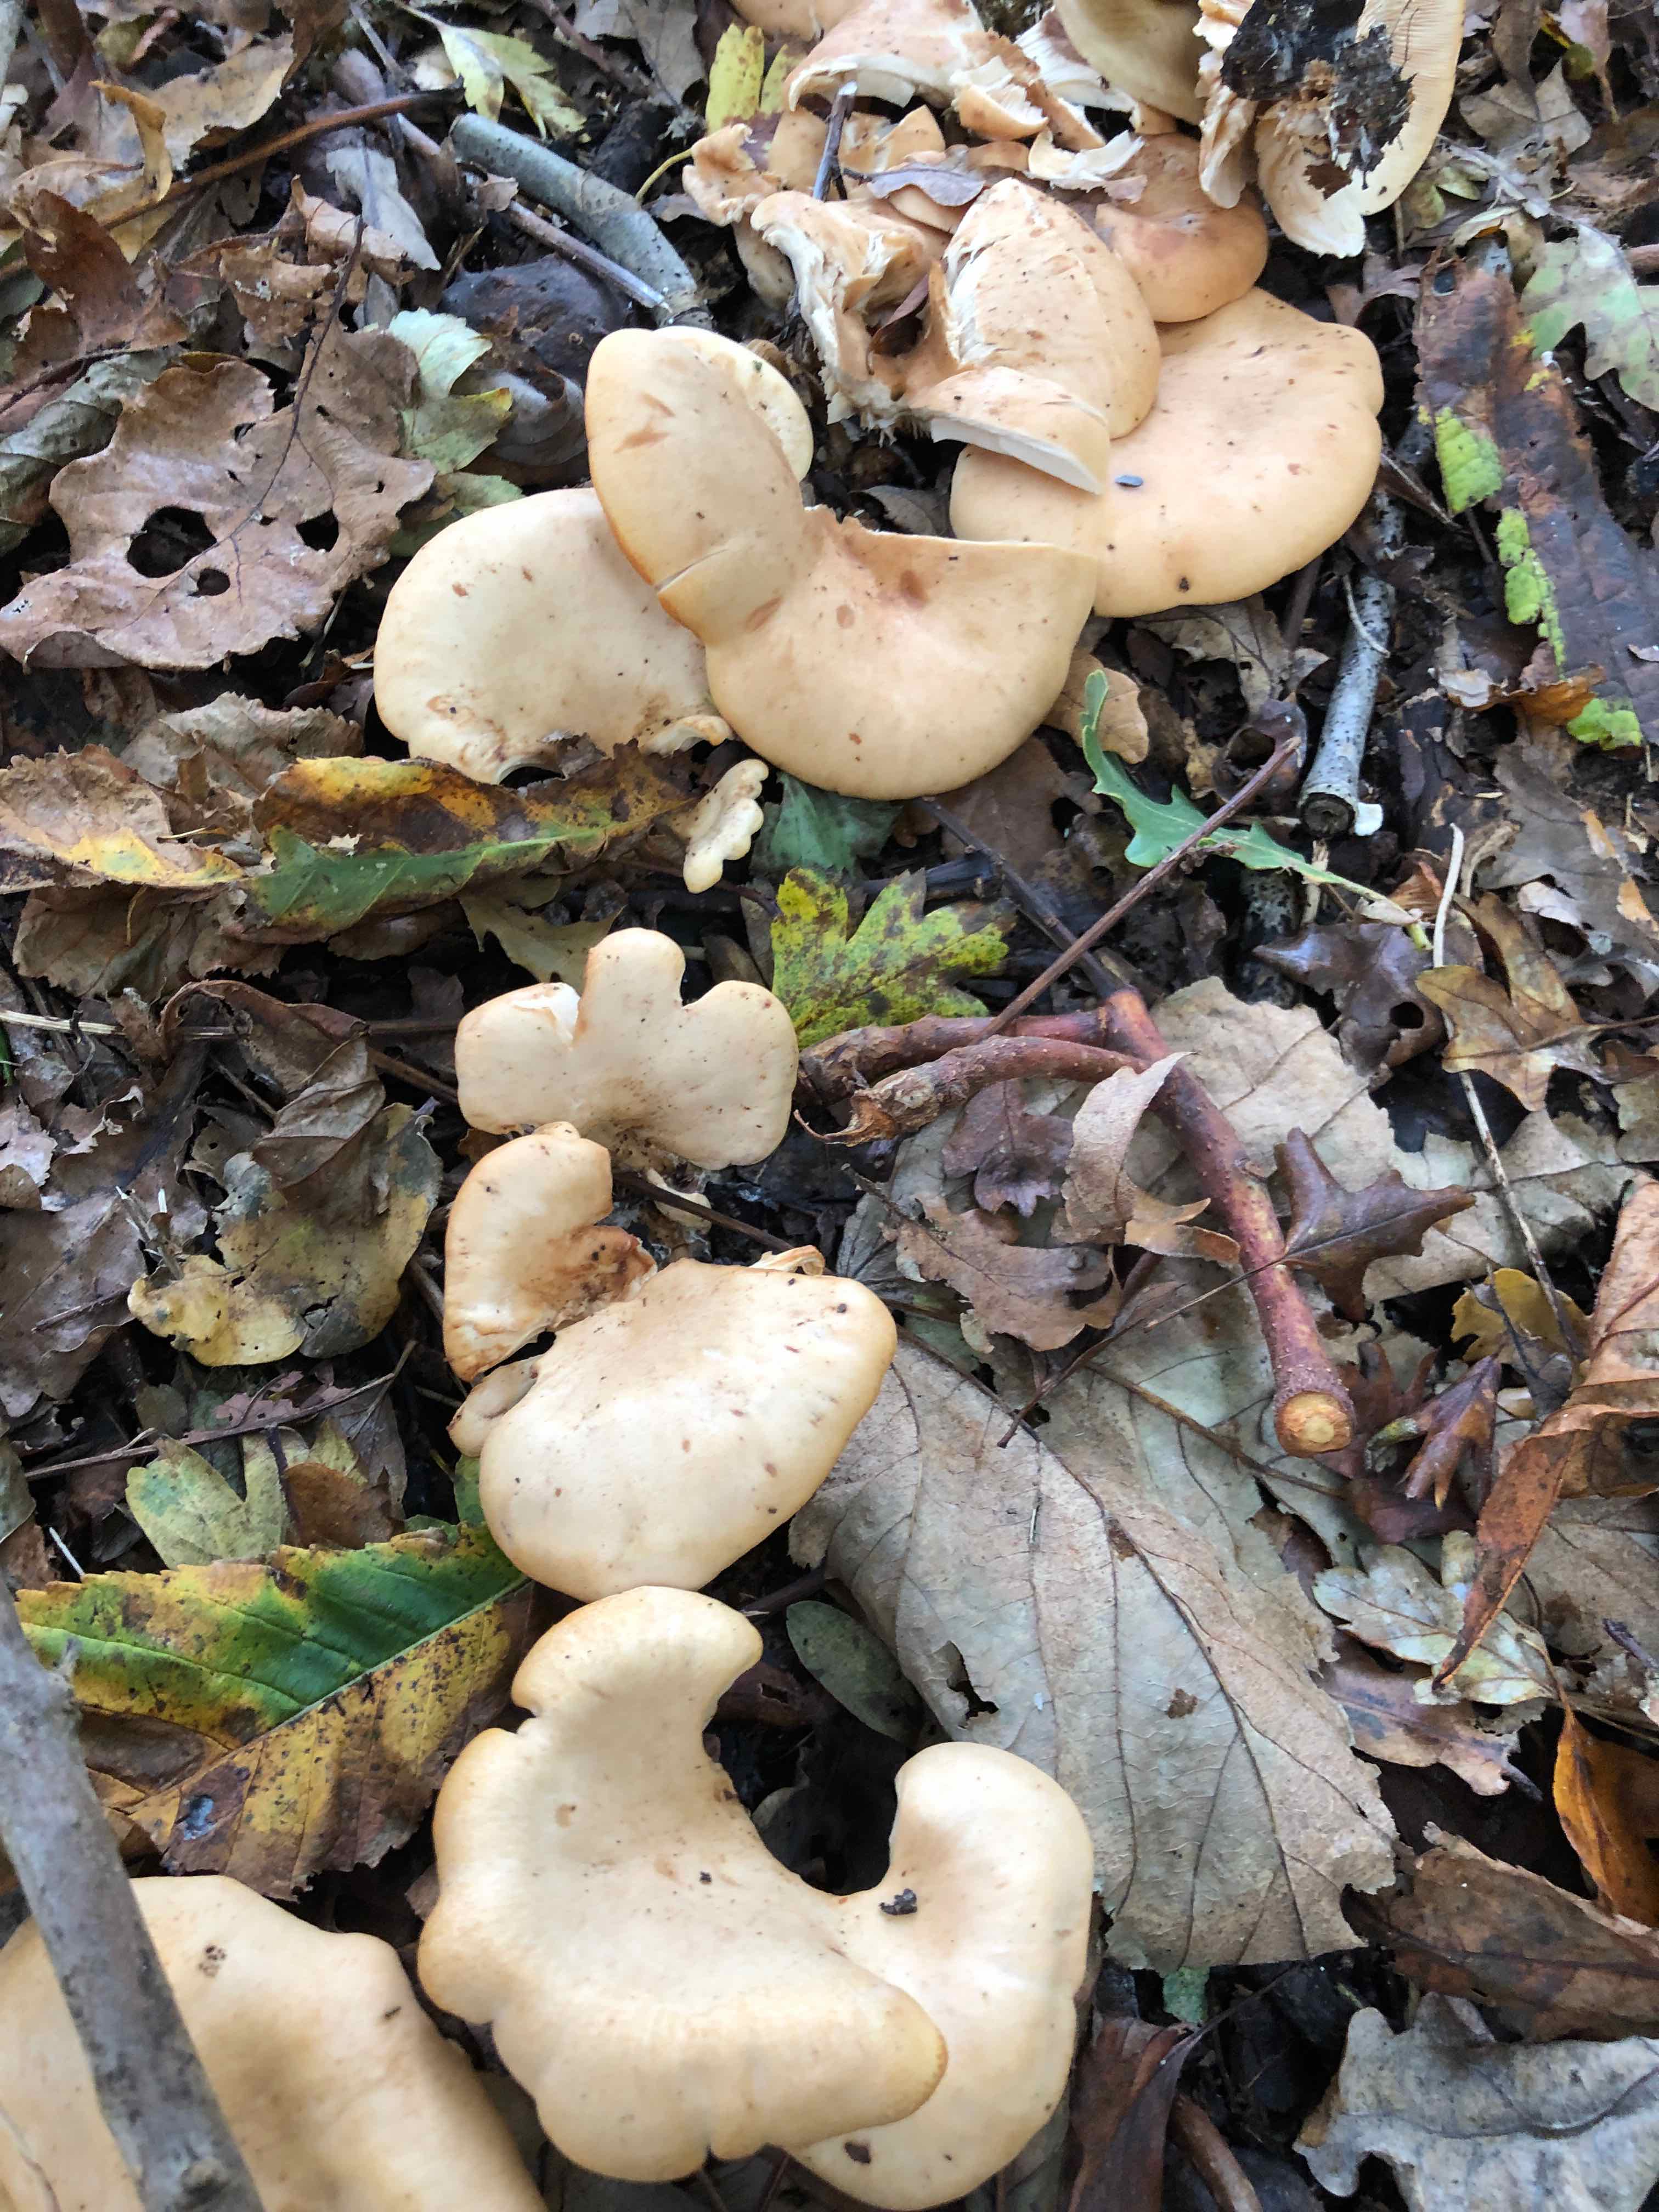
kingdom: Fungi
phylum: Basidiomycota
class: Agaricomycetes
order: Agaricales
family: Tricholomataceae
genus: Paralepista
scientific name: Paralepista flaccida
